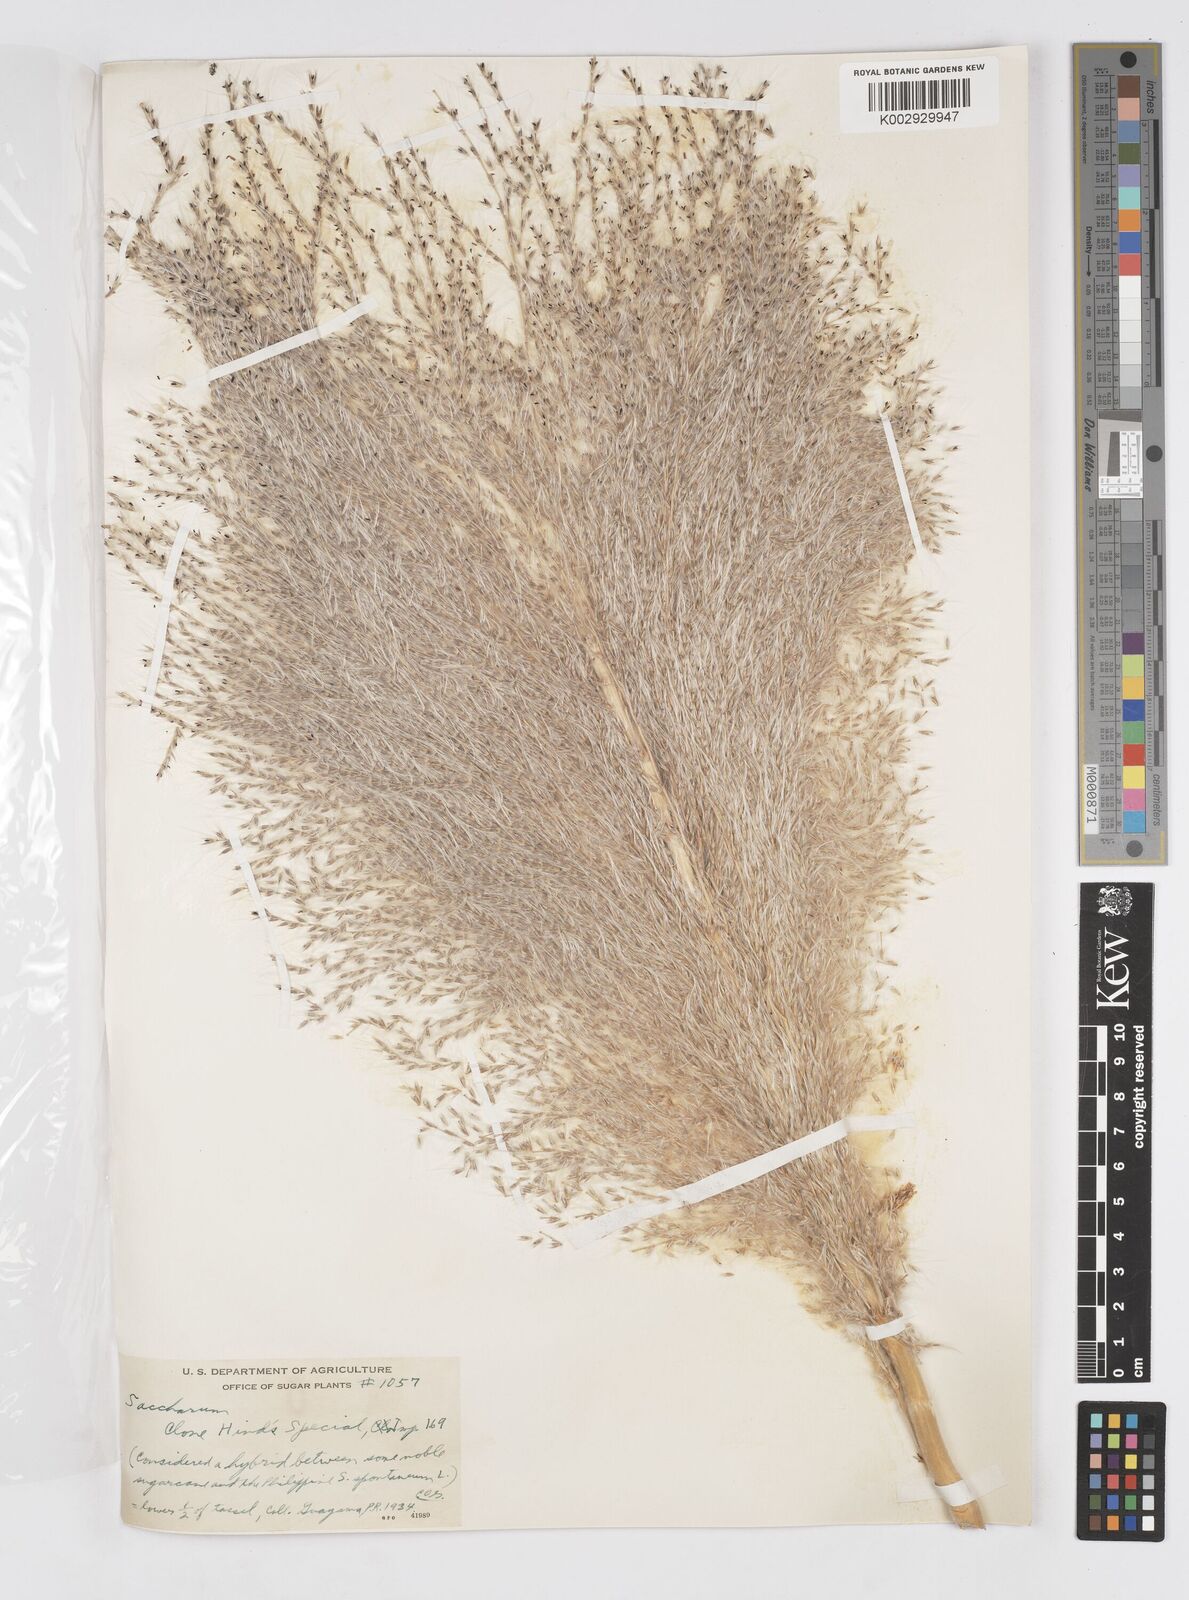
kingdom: Plantae
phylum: Tracheophyta
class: Liliopsida
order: Poales
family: Poaceae
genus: Saccharum
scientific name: Saccharum officinarum
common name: Sugarcane
